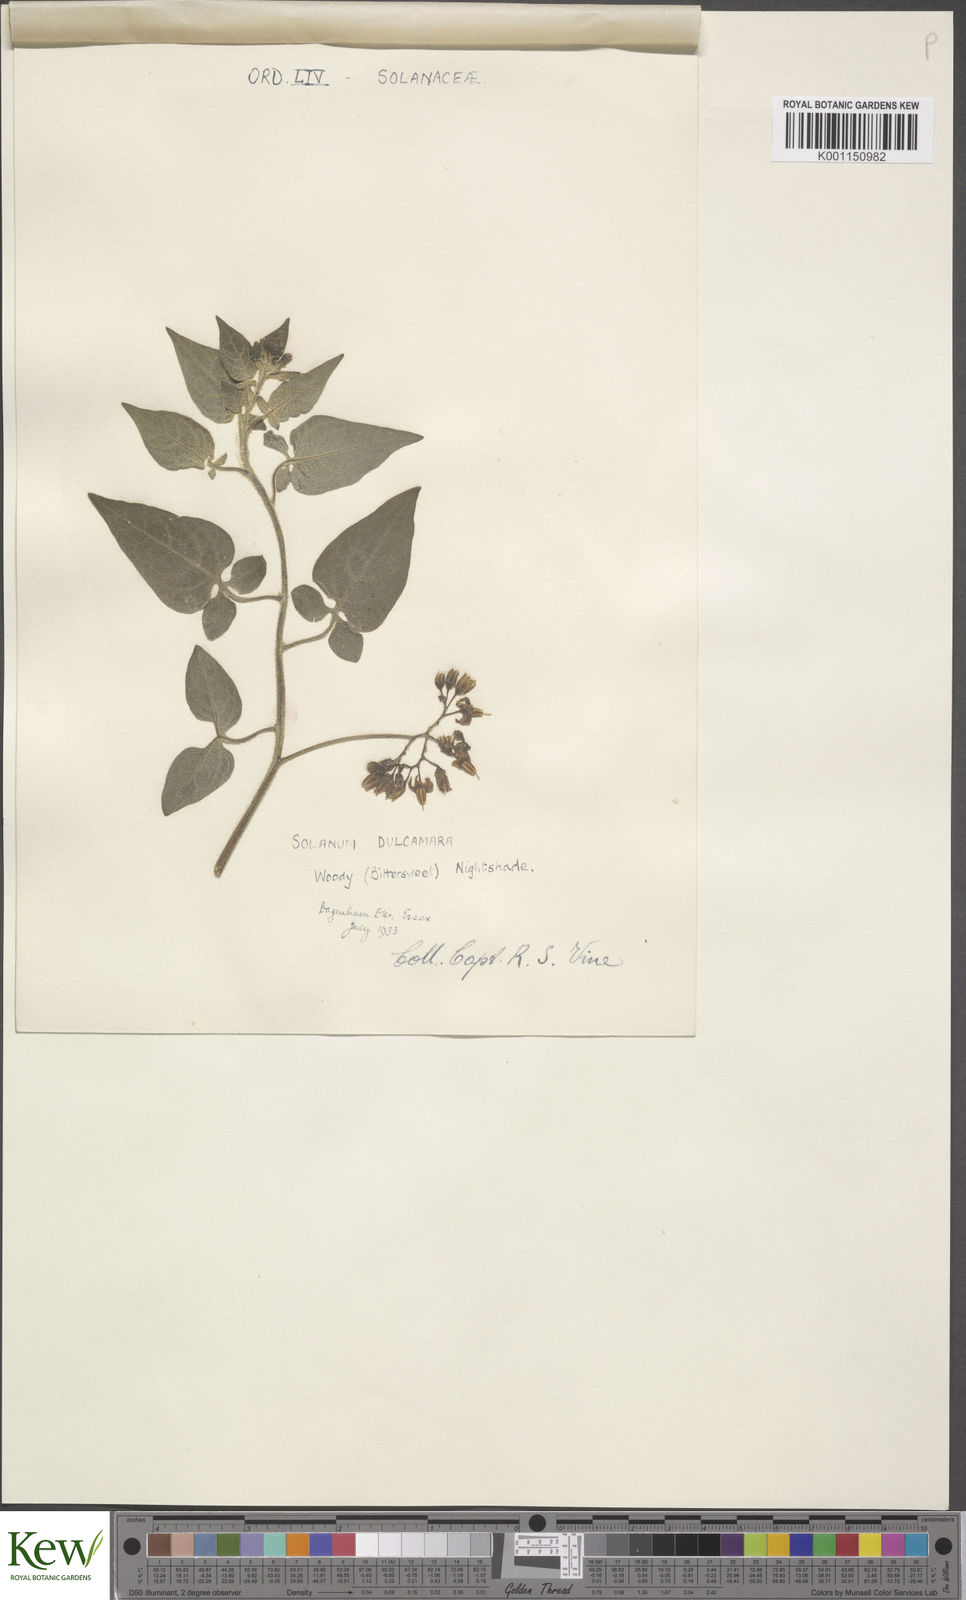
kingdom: Plantae
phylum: Tracheophyta
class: Magnoliopsida
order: Solanales
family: Solanaceae
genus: Solanum
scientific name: Solanum dulcamara
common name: Climbing nightshade
